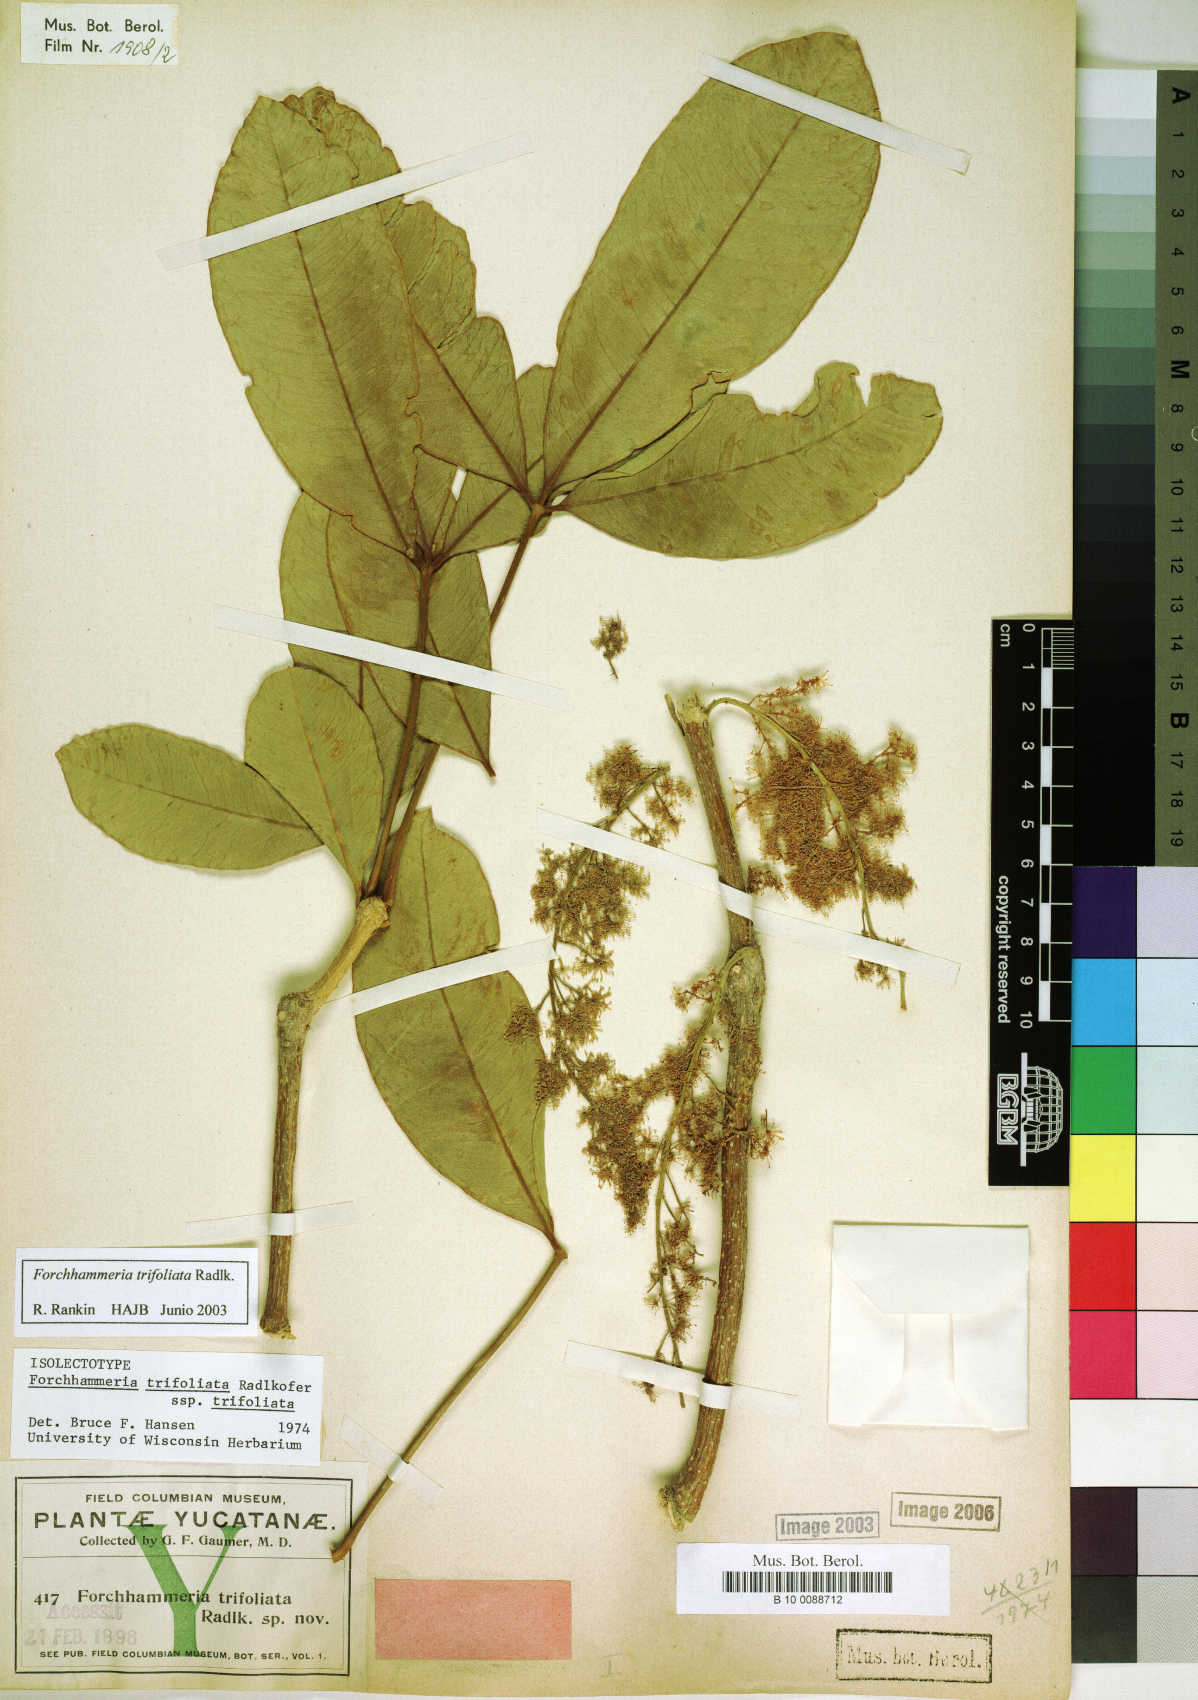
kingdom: Plantae
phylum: Tracheophyta
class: Magnoliopsida
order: Brassicales
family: Stixaceae
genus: Forchhammeria
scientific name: Forchhammeria trifoliata
